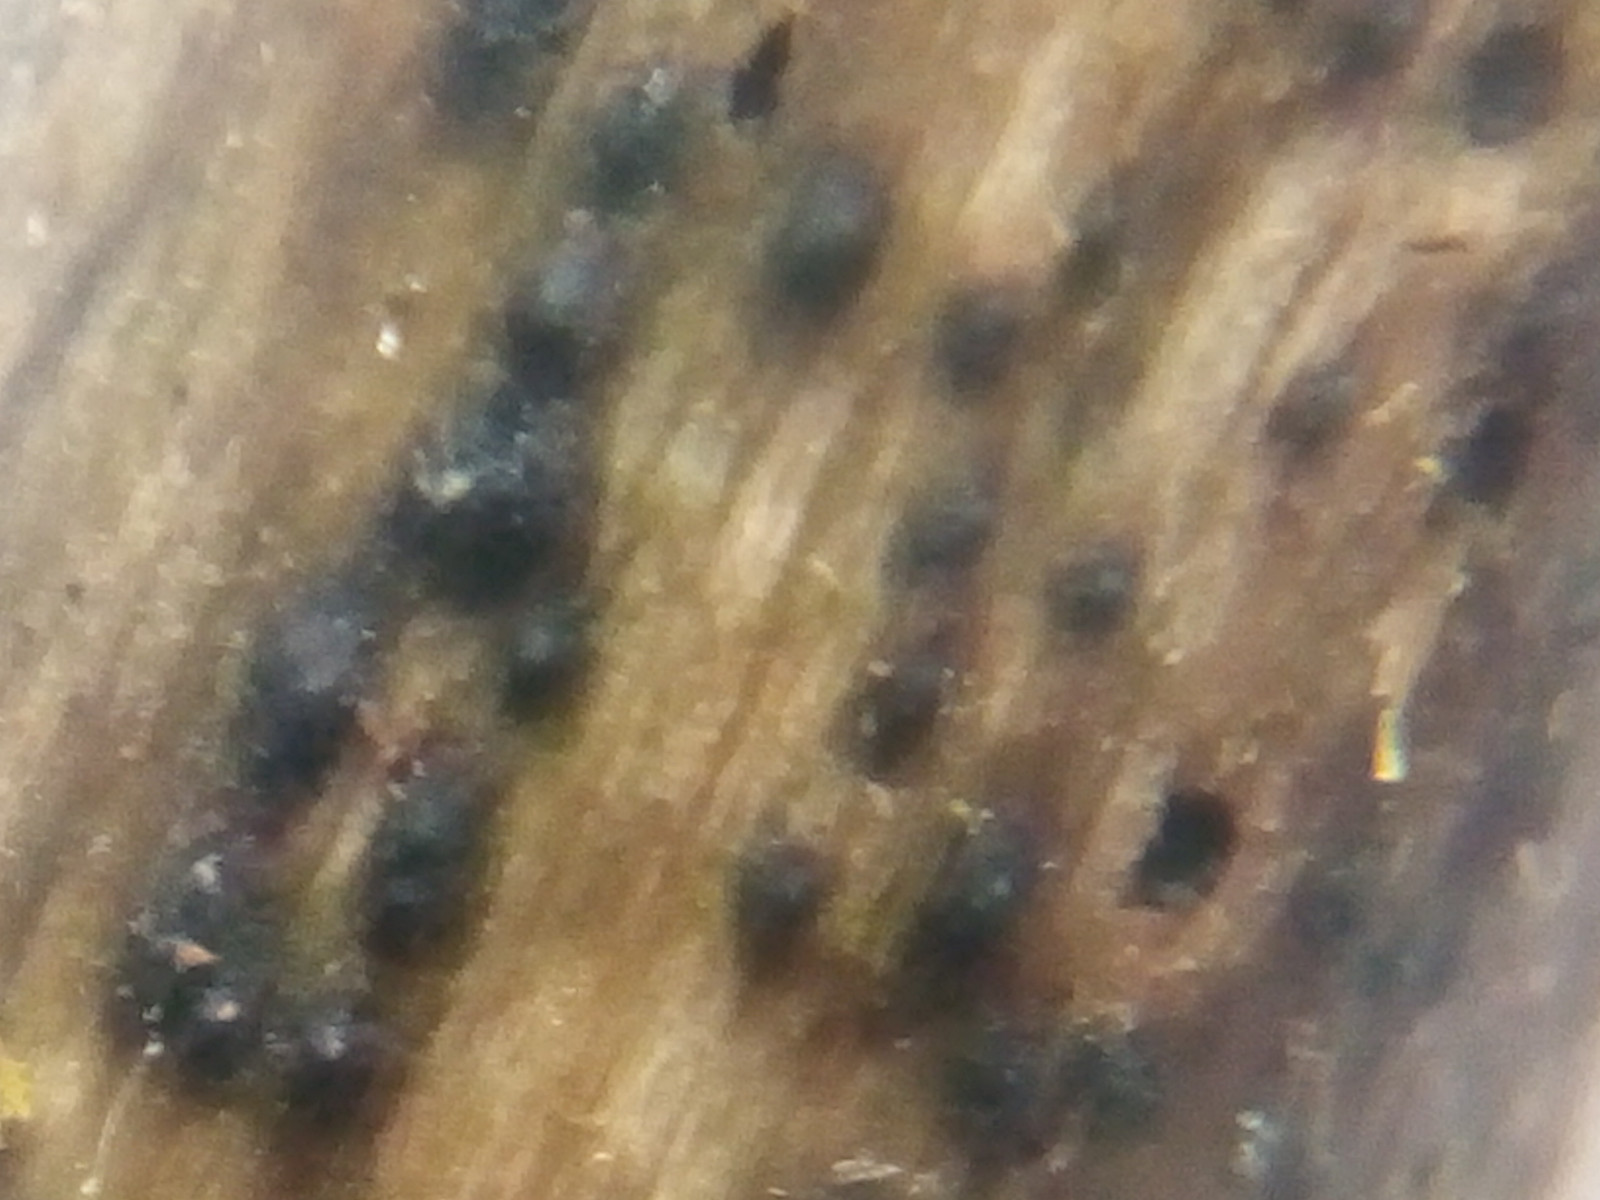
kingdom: Fungi
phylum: Ascomycota
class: Dothideomycetes
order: Pleosporales
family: Lophiostomataceae
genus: Lophiostoma
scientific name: Lophiostoma compressum
